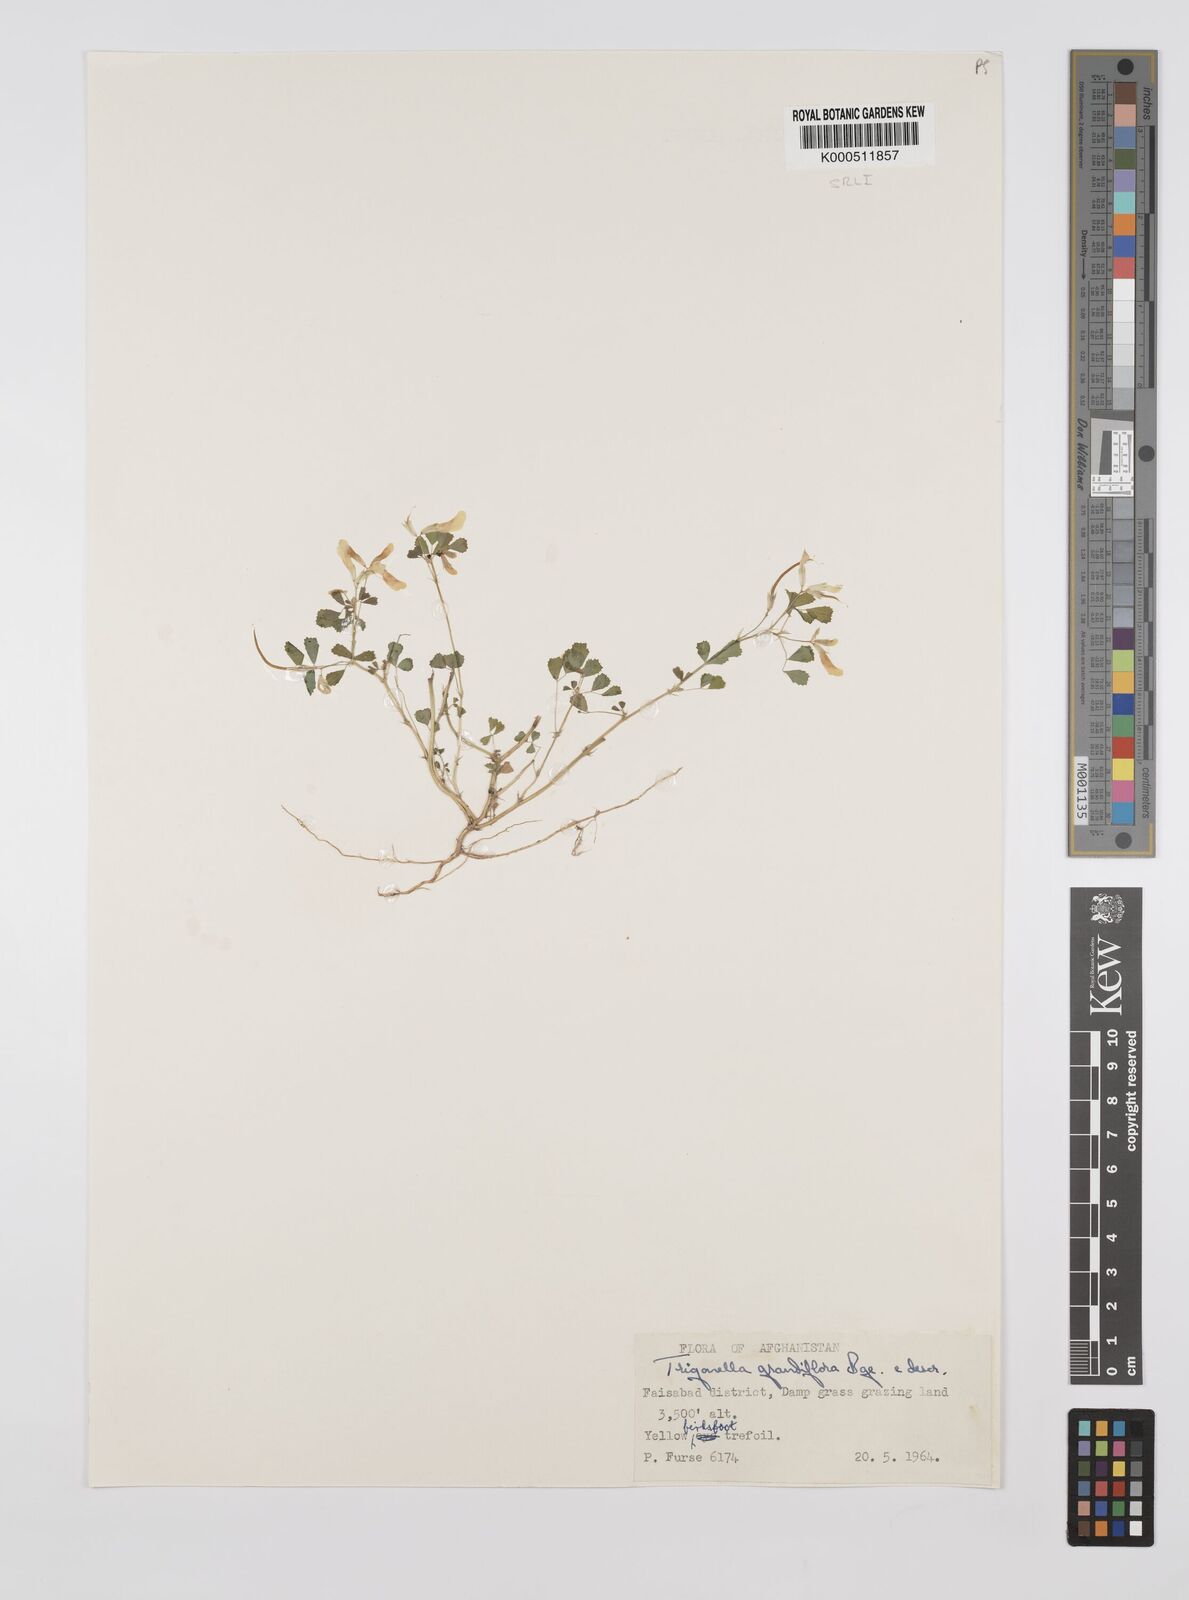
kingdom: Plantae
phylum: Tracheophyta
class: Magnoliopsida
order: Fabales
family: Fabaceae
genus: Trigonella
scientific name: Trigonella grandiflora
